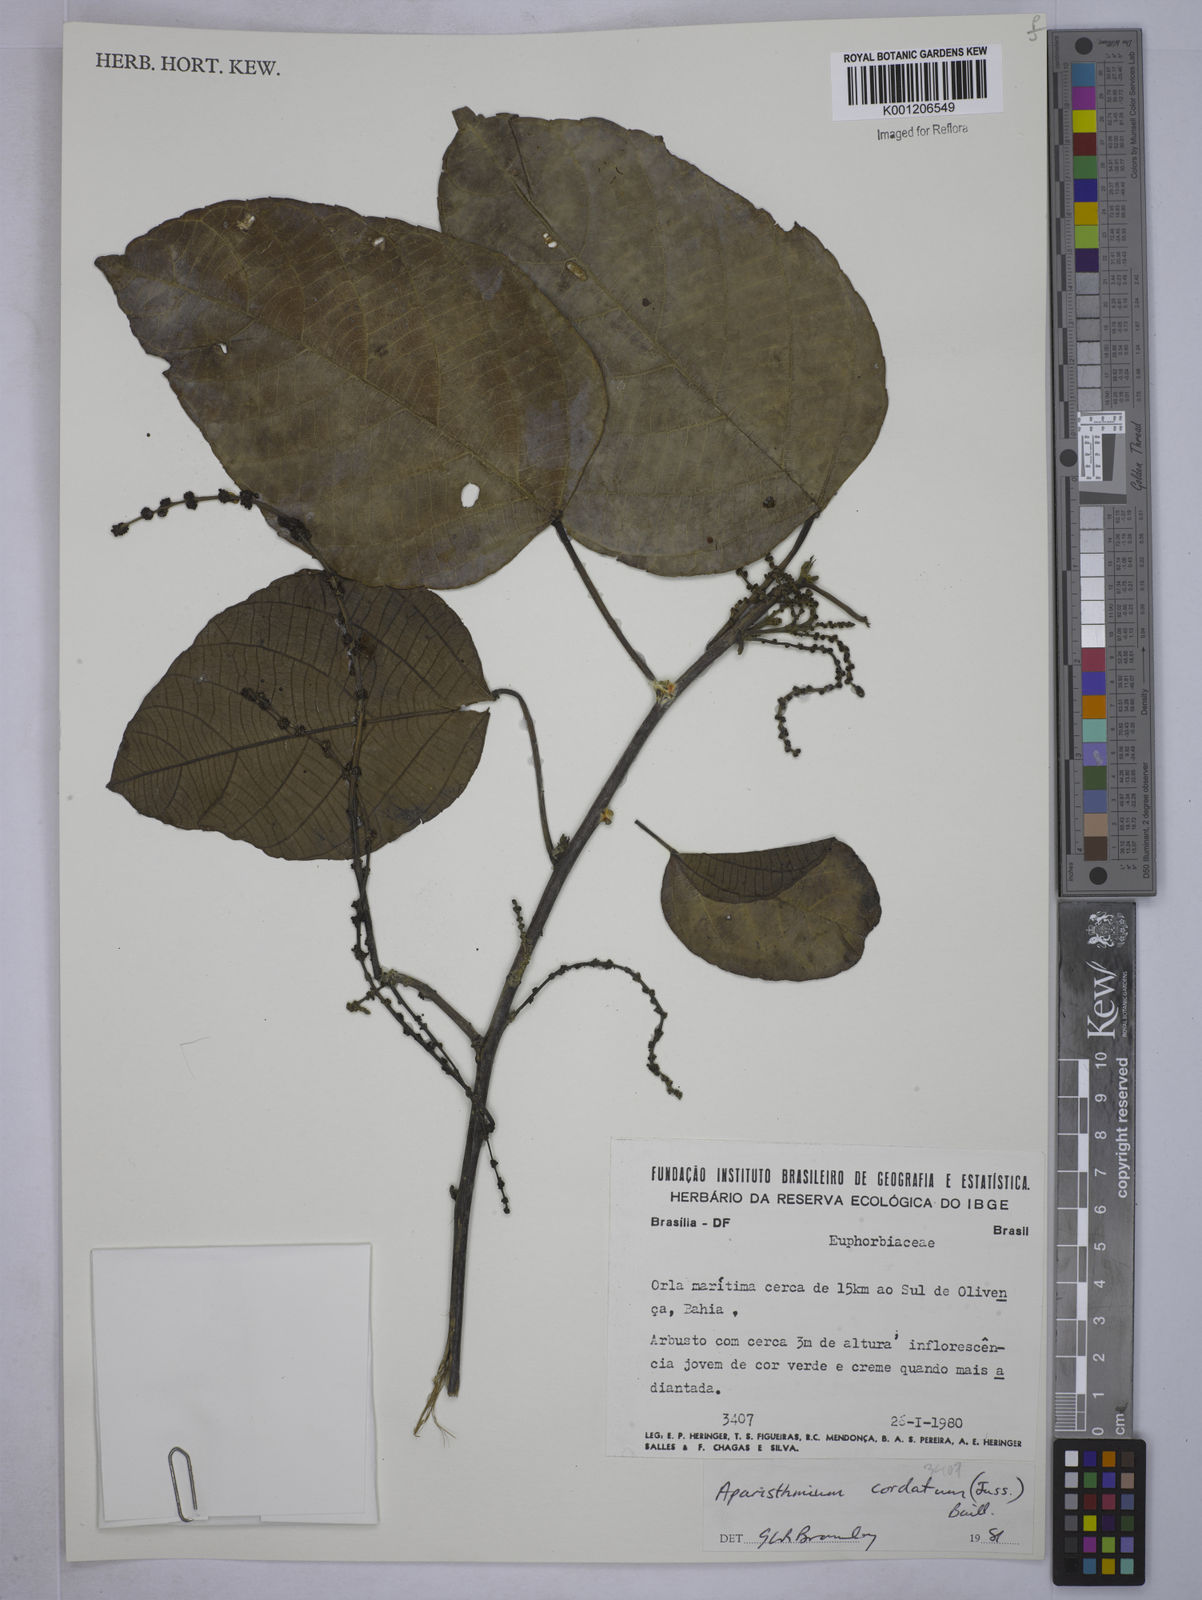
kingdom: Plantae
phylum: Tracheophyta
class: Magnoliopsida
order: Malpighiales
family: Euphorbiaceae
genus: Aparisthmium
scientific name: Aparisthmium cordatum
